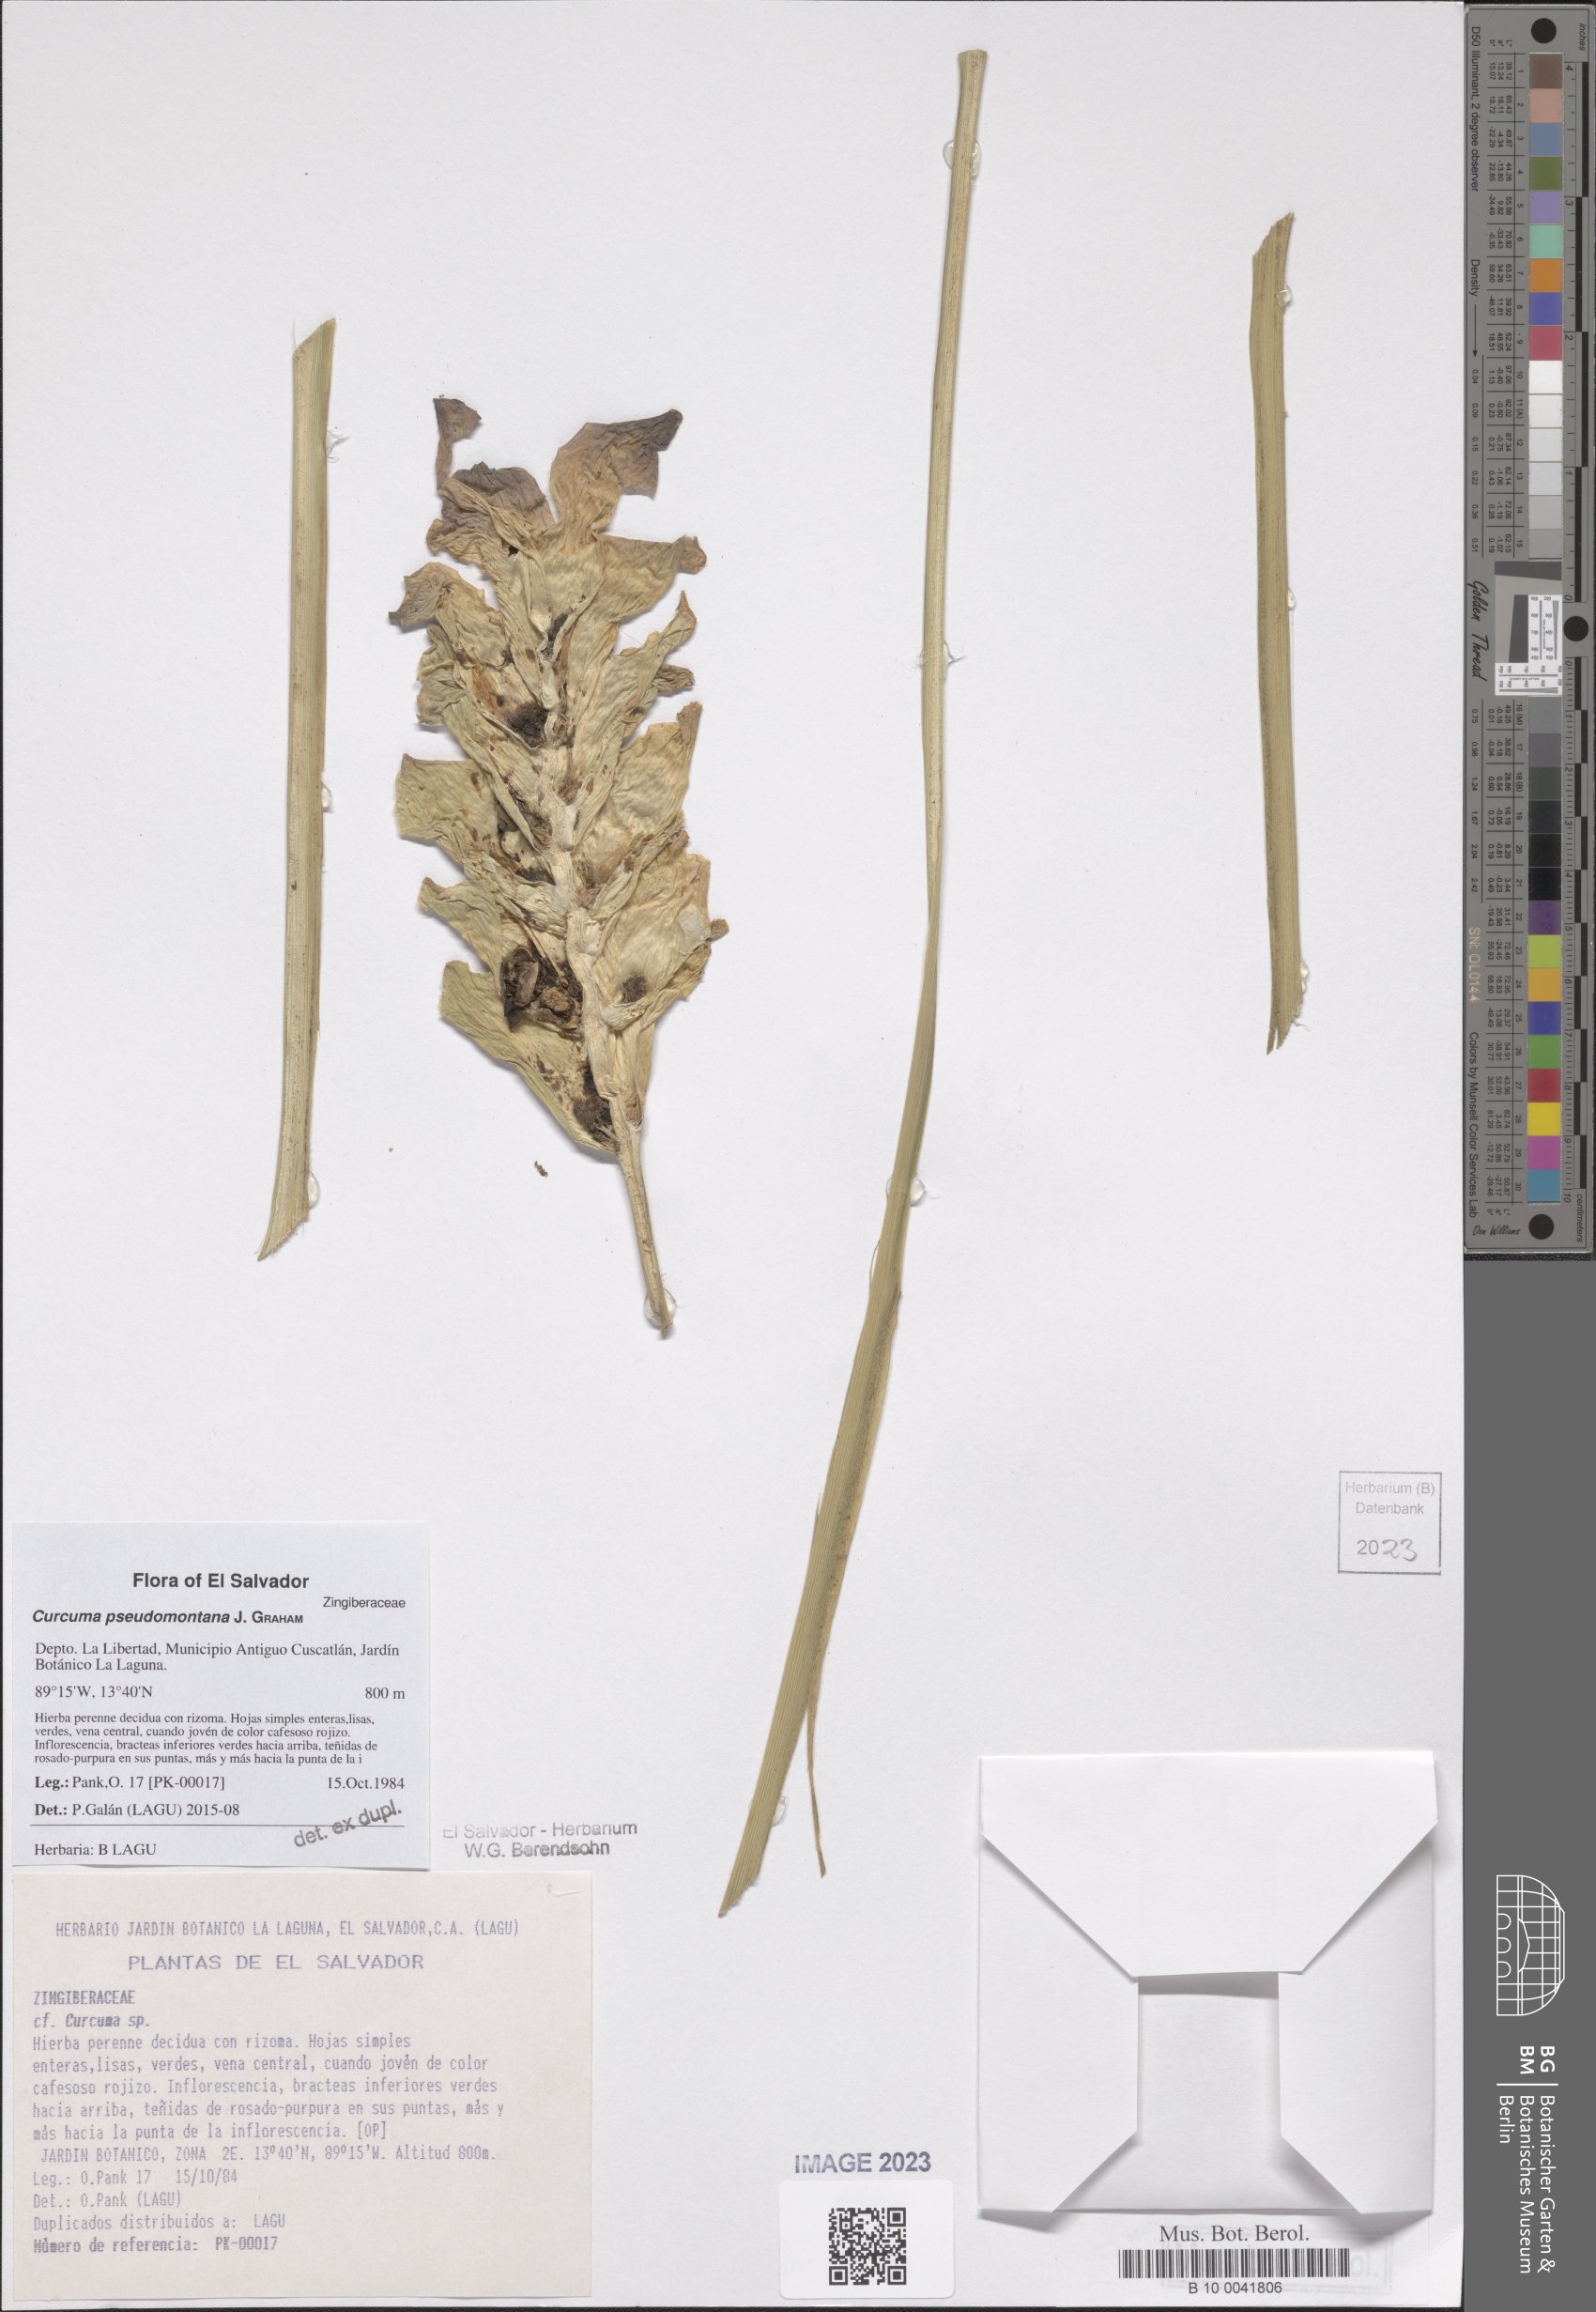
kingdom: Plantae
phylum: Tracheophyta
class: Liliopsida
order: Zingiberales
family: Zingiberaceae
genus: Curcuma
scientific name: Curcuma pseudomontana
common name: Hill turmeric
